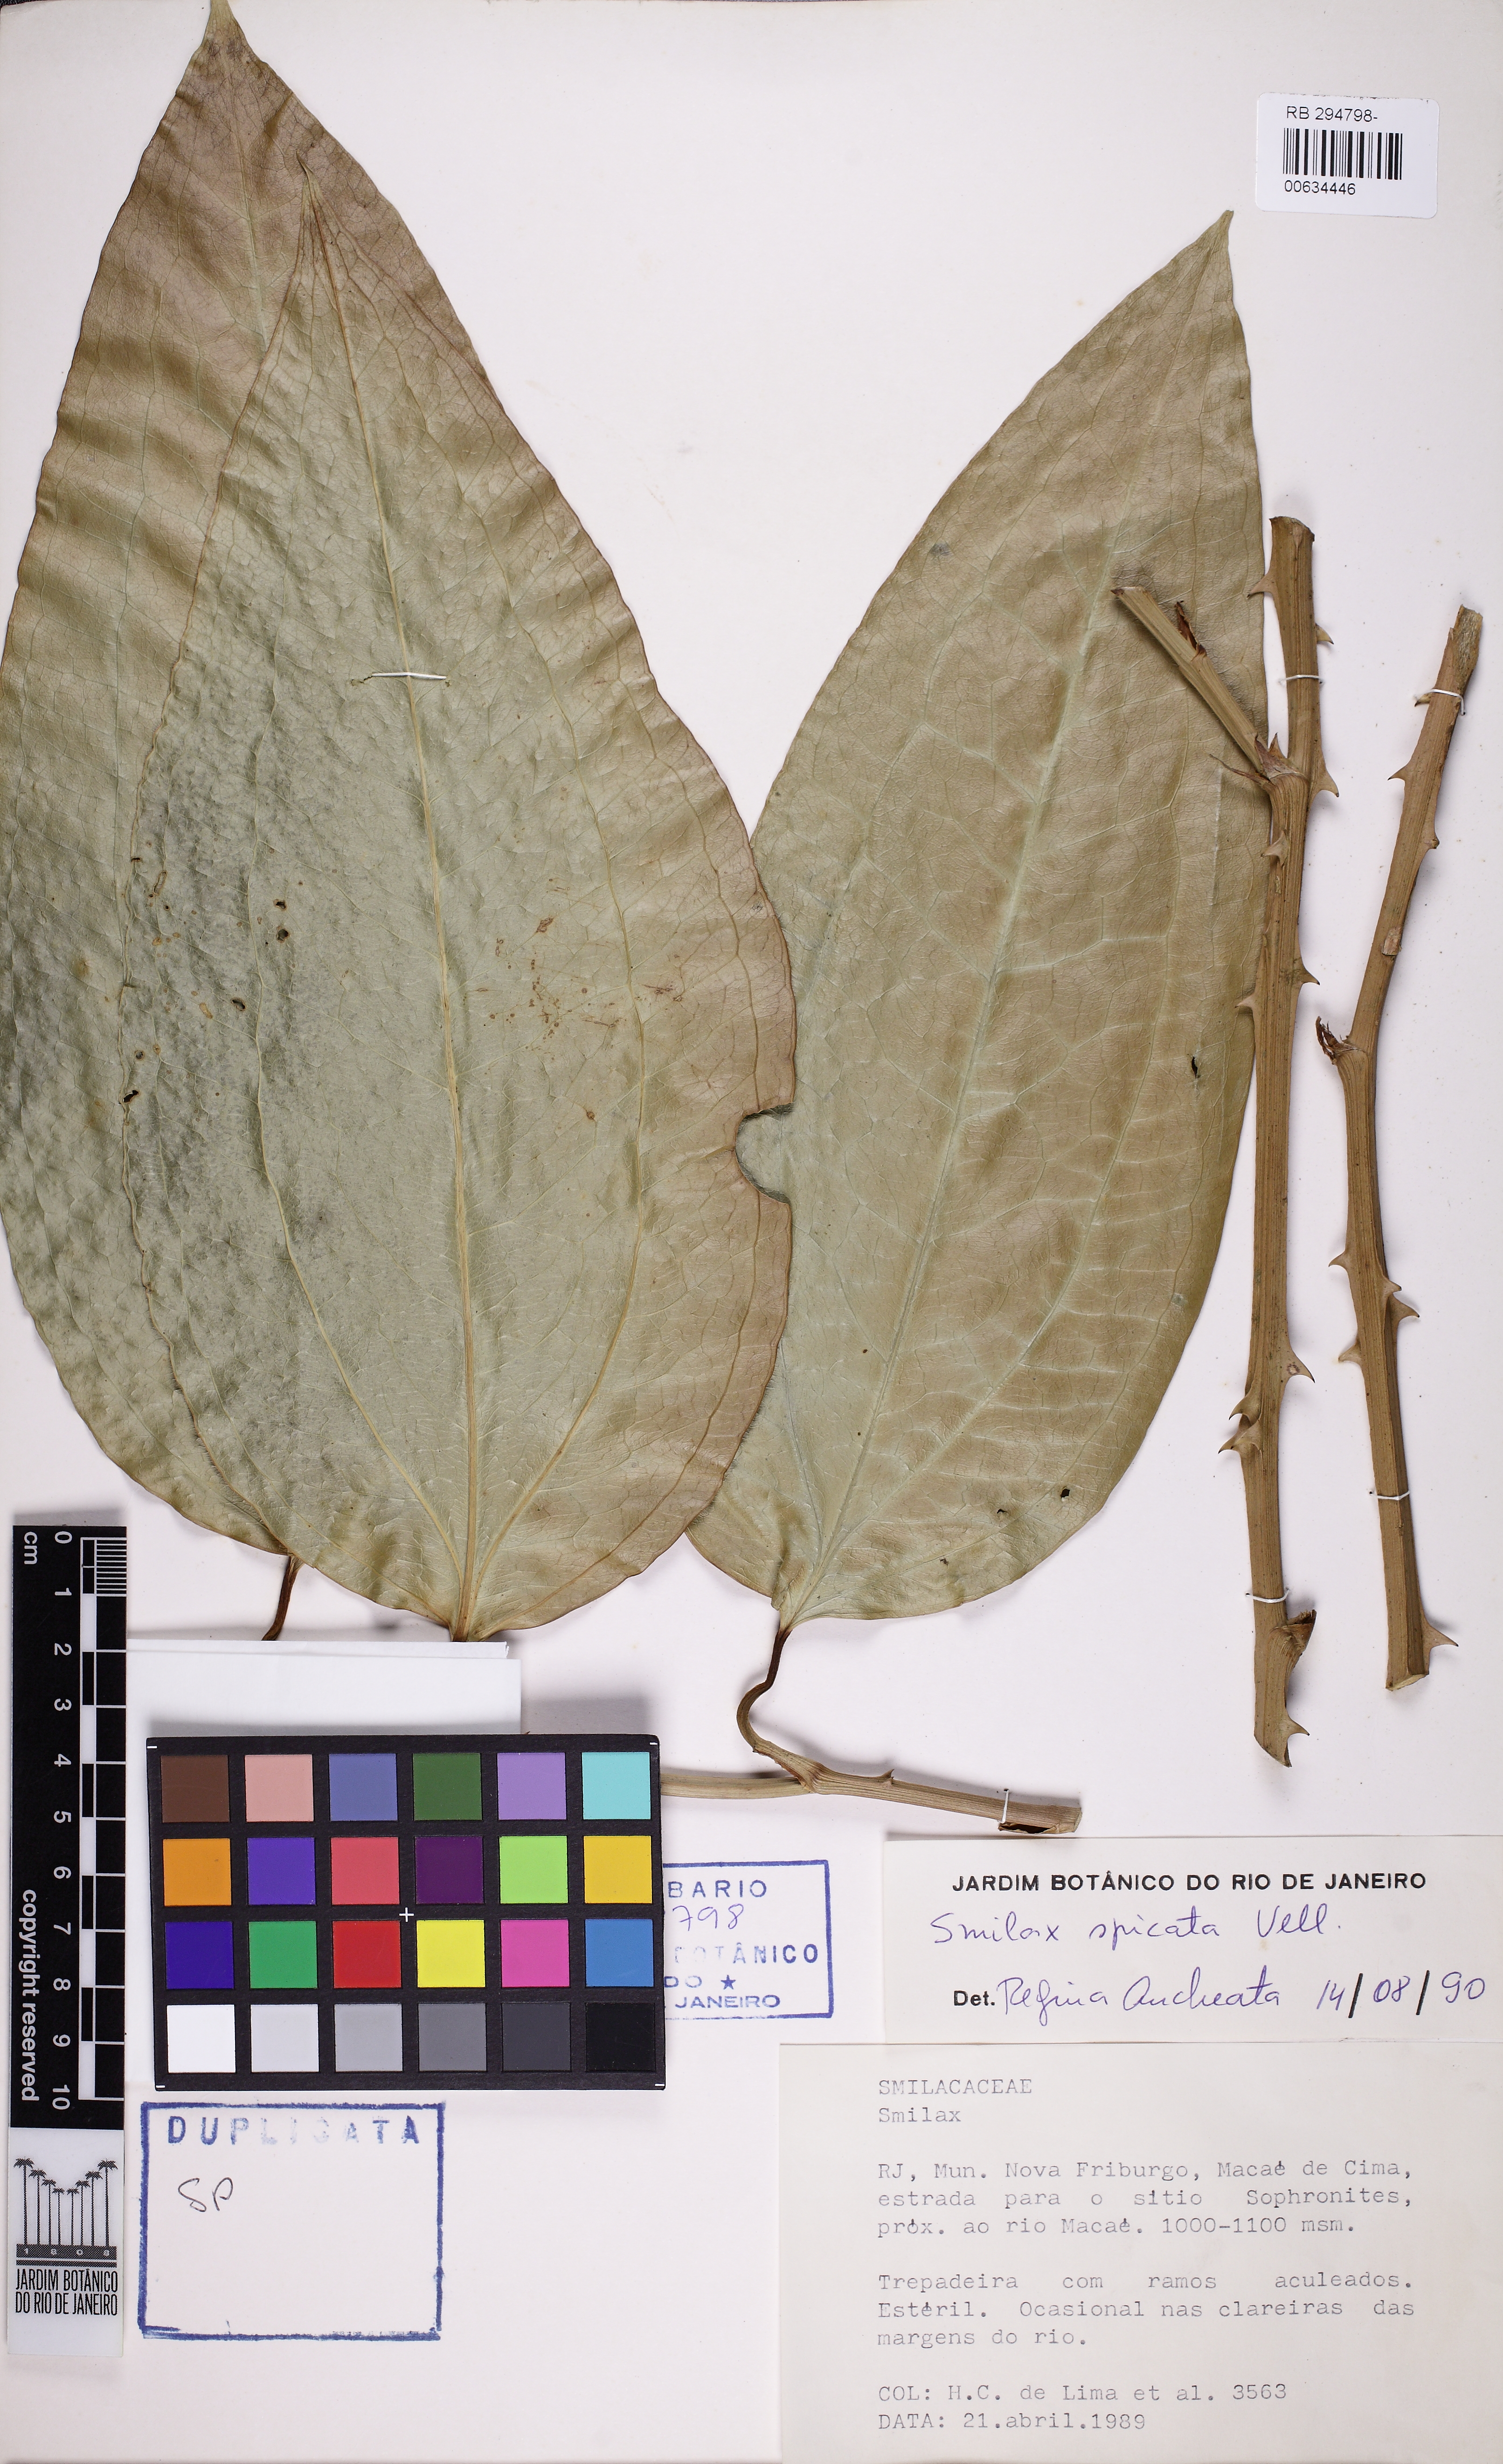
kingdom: Plantae
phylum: Tracheophyta
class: Liliopsida
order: Liliales
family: Smilacaceae
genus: Smilax
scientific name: Smilax spicata
